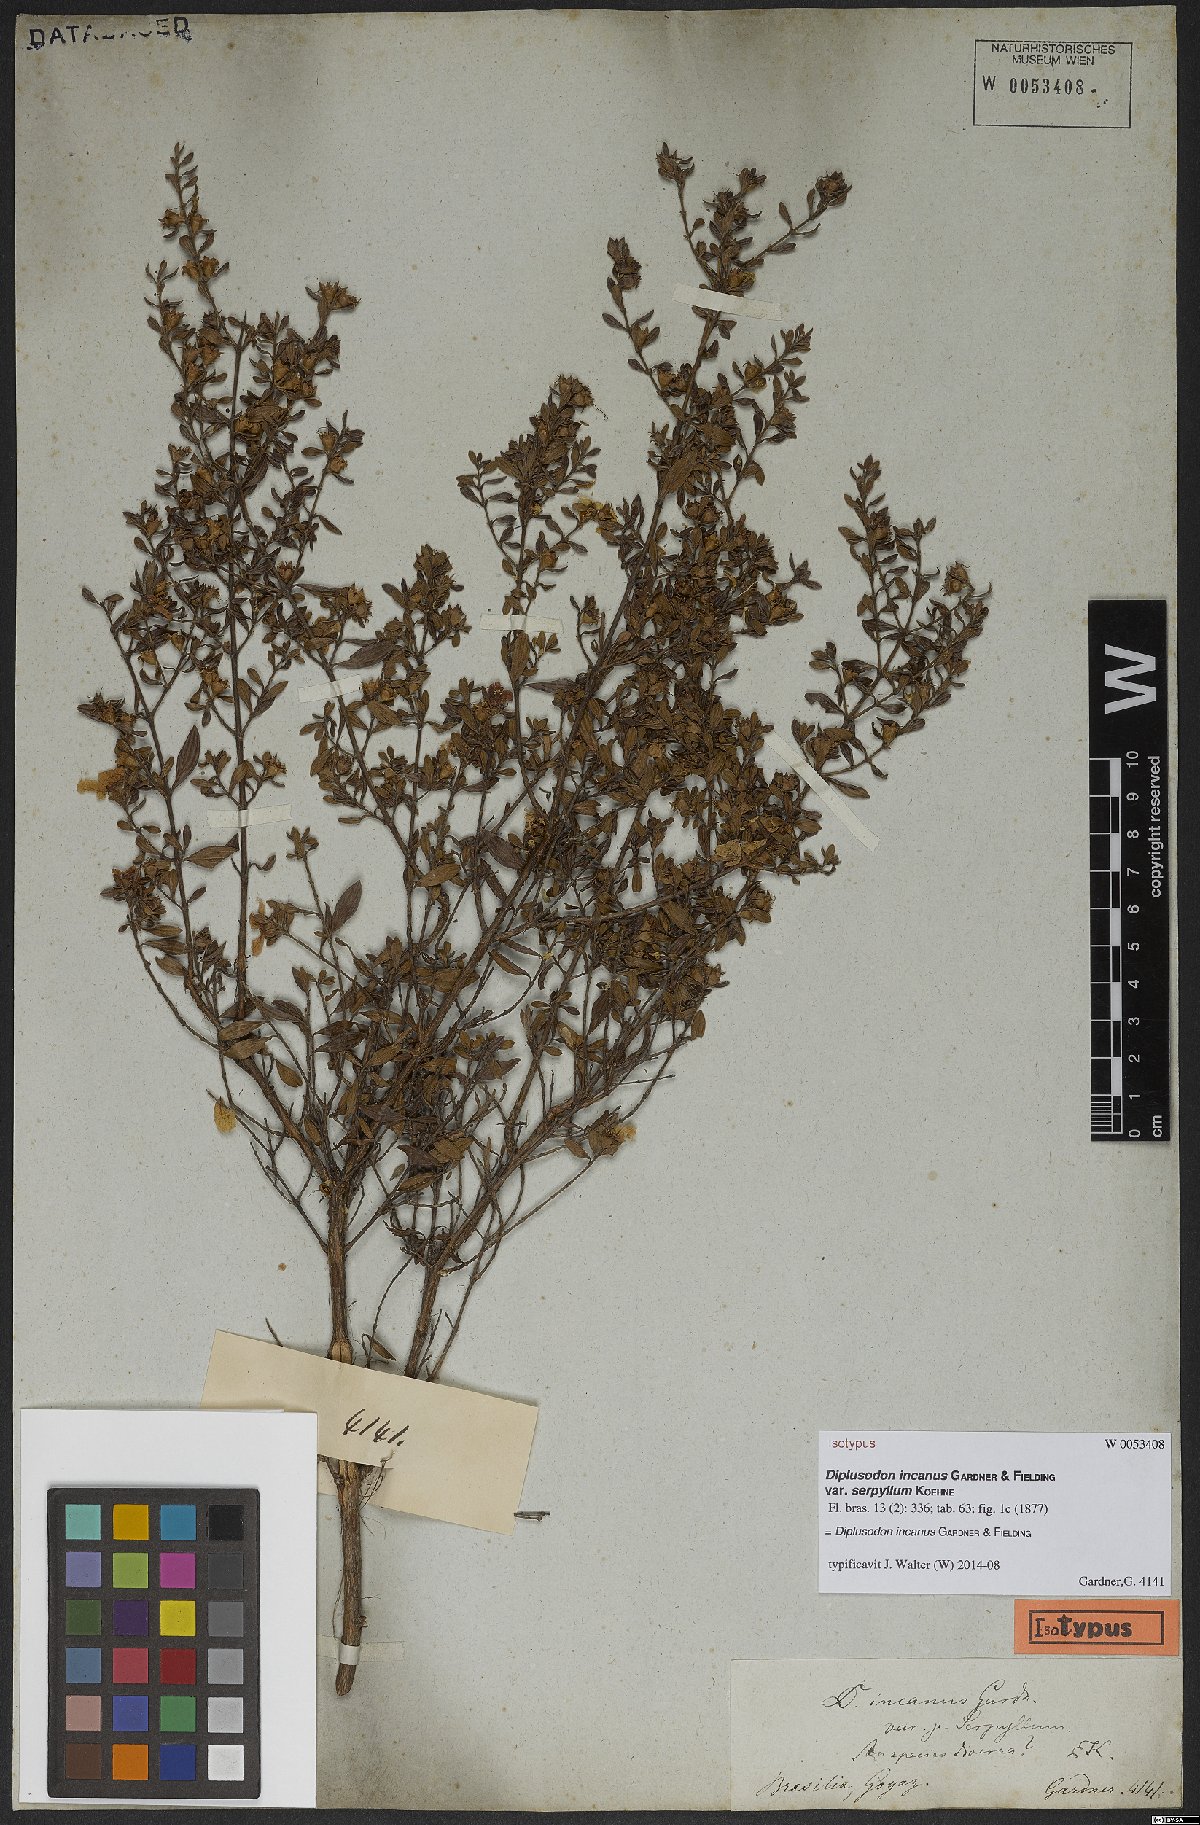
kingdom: Plantae
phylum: Tracheophyta
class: Magnoliopsida
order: Myrtales
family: Lythraceae
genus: Diplusodon
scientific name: Diplusodon incanus
